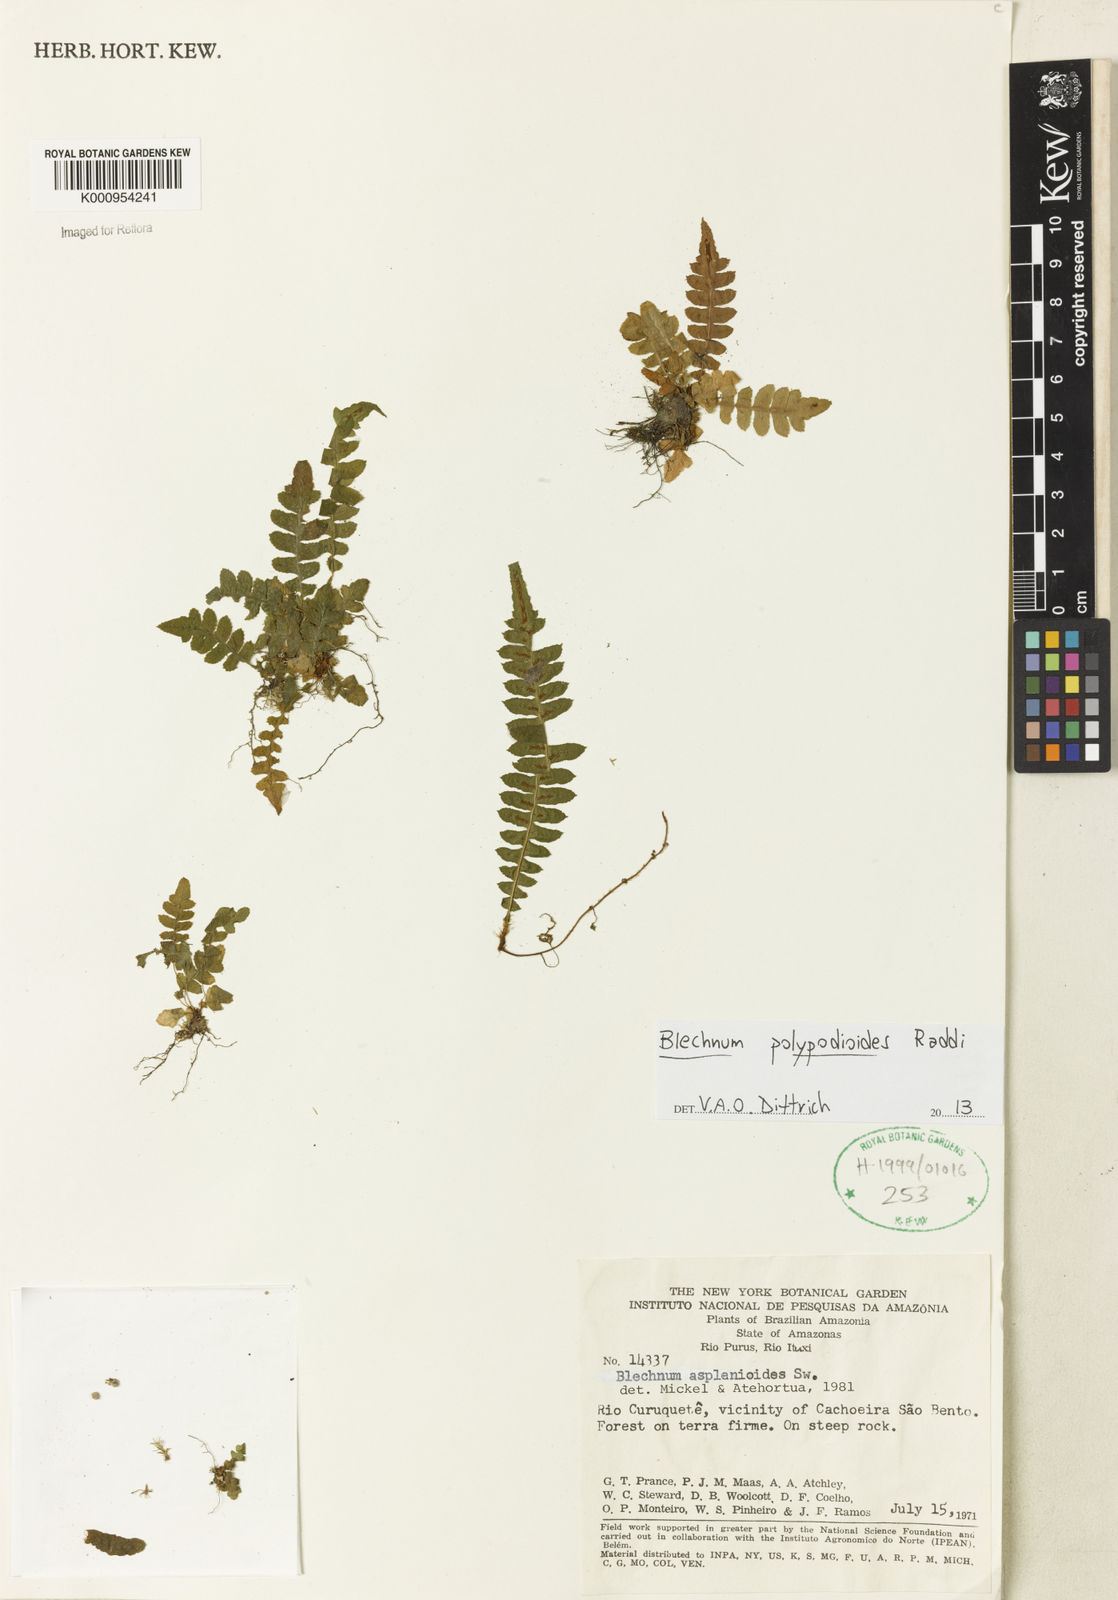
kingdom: Plantae
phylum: Tracheophyta
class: Polypodiopsida
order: Polypodiales
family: Blechnaceae
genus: Blechnum
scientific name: Blechnum asplenioides
